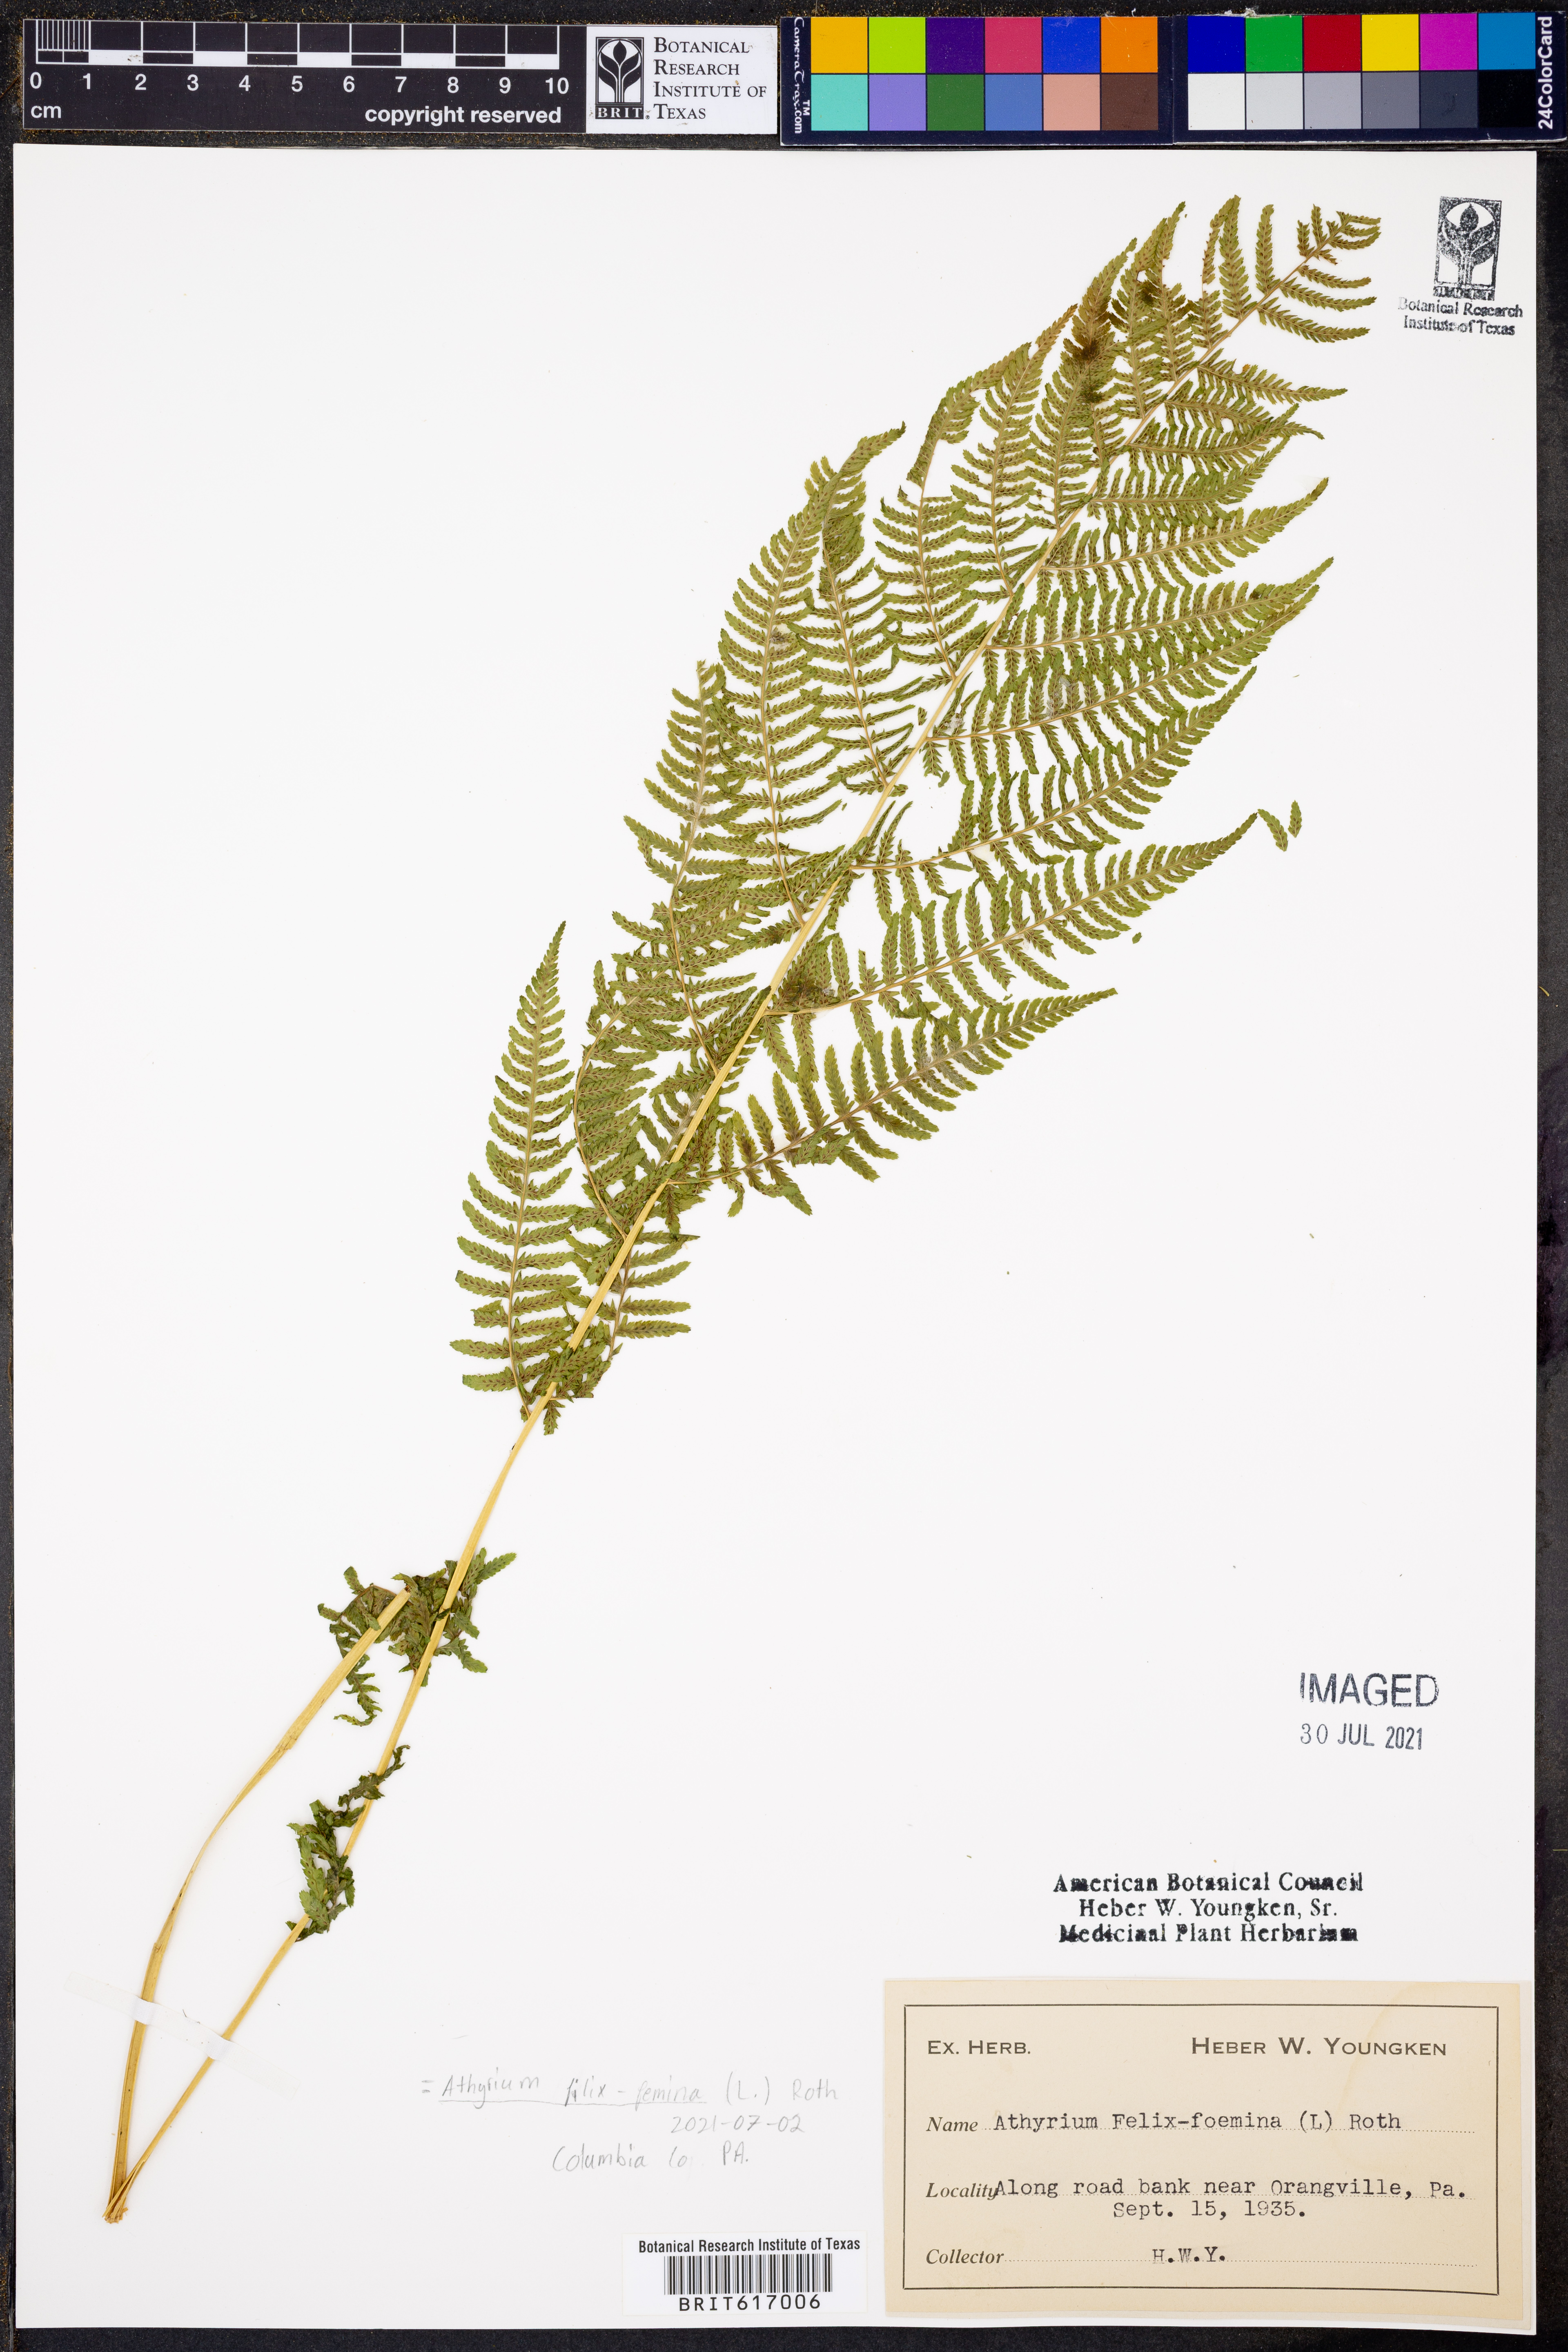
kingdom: Plantae
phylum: Tracheophyta
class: Polypodiopsida
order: Polypodiales
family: Athyriaceae
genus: Athyrium
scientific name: Athyrium filix-femina
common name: Lady fern
